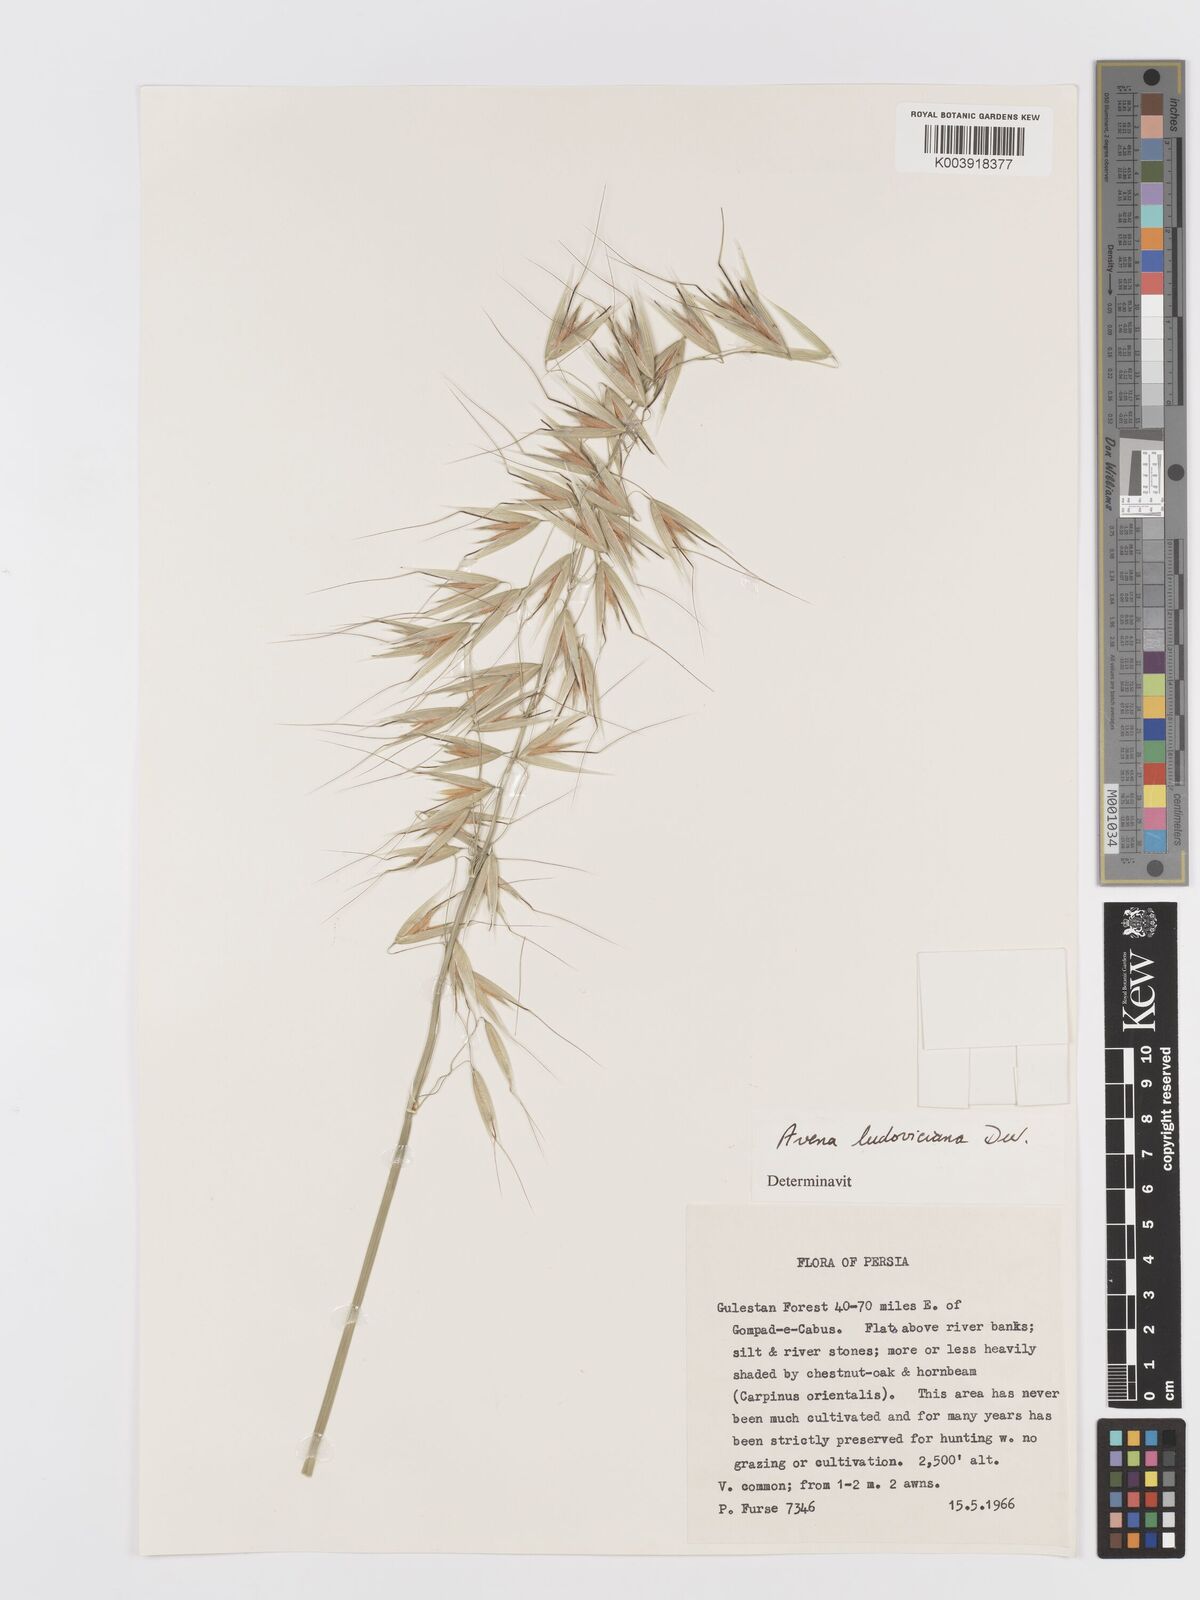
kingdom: Plantae
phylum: Tracheophyta
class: Liliopsida
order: Poales
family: Poaceae
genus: Avena
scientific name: Avena sterilis
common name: Animated oat
